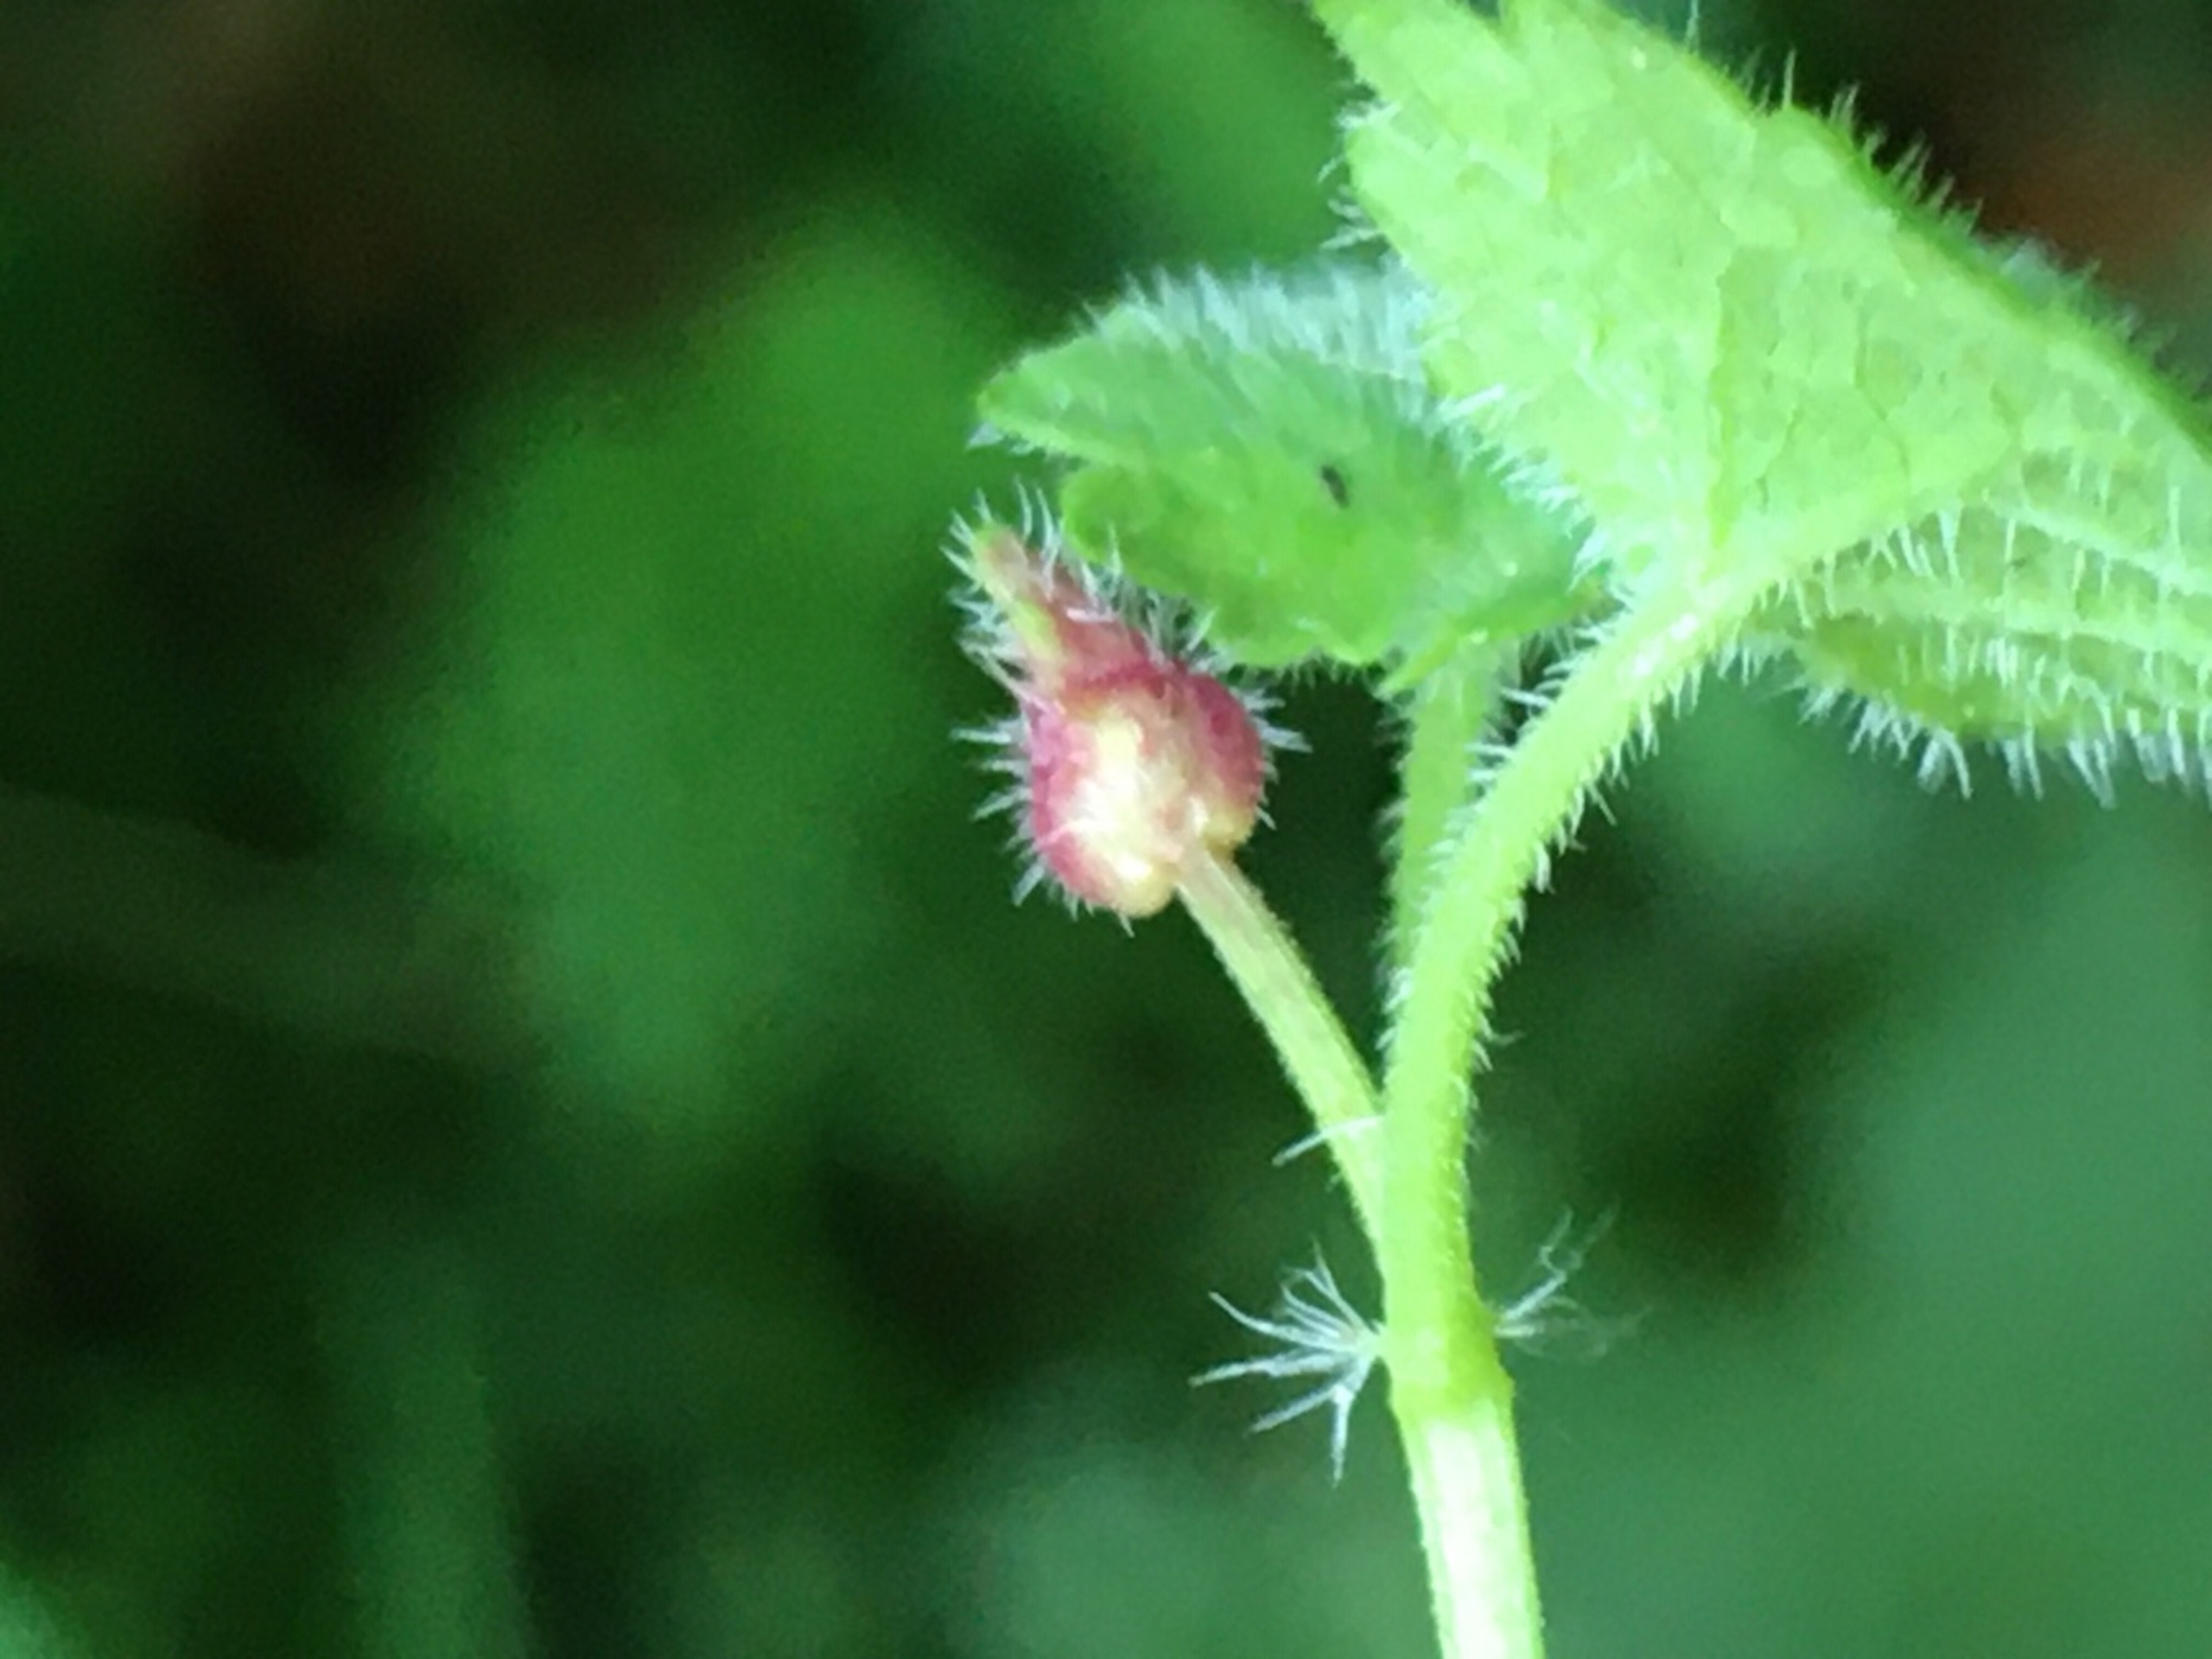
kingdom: Animalia
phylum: Arthropoda
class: Insecta
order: Diptera
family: Cecidomyiidae
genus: Dasineura
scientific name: Dasineura glechomae
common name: Korsknapskudgalmyg
